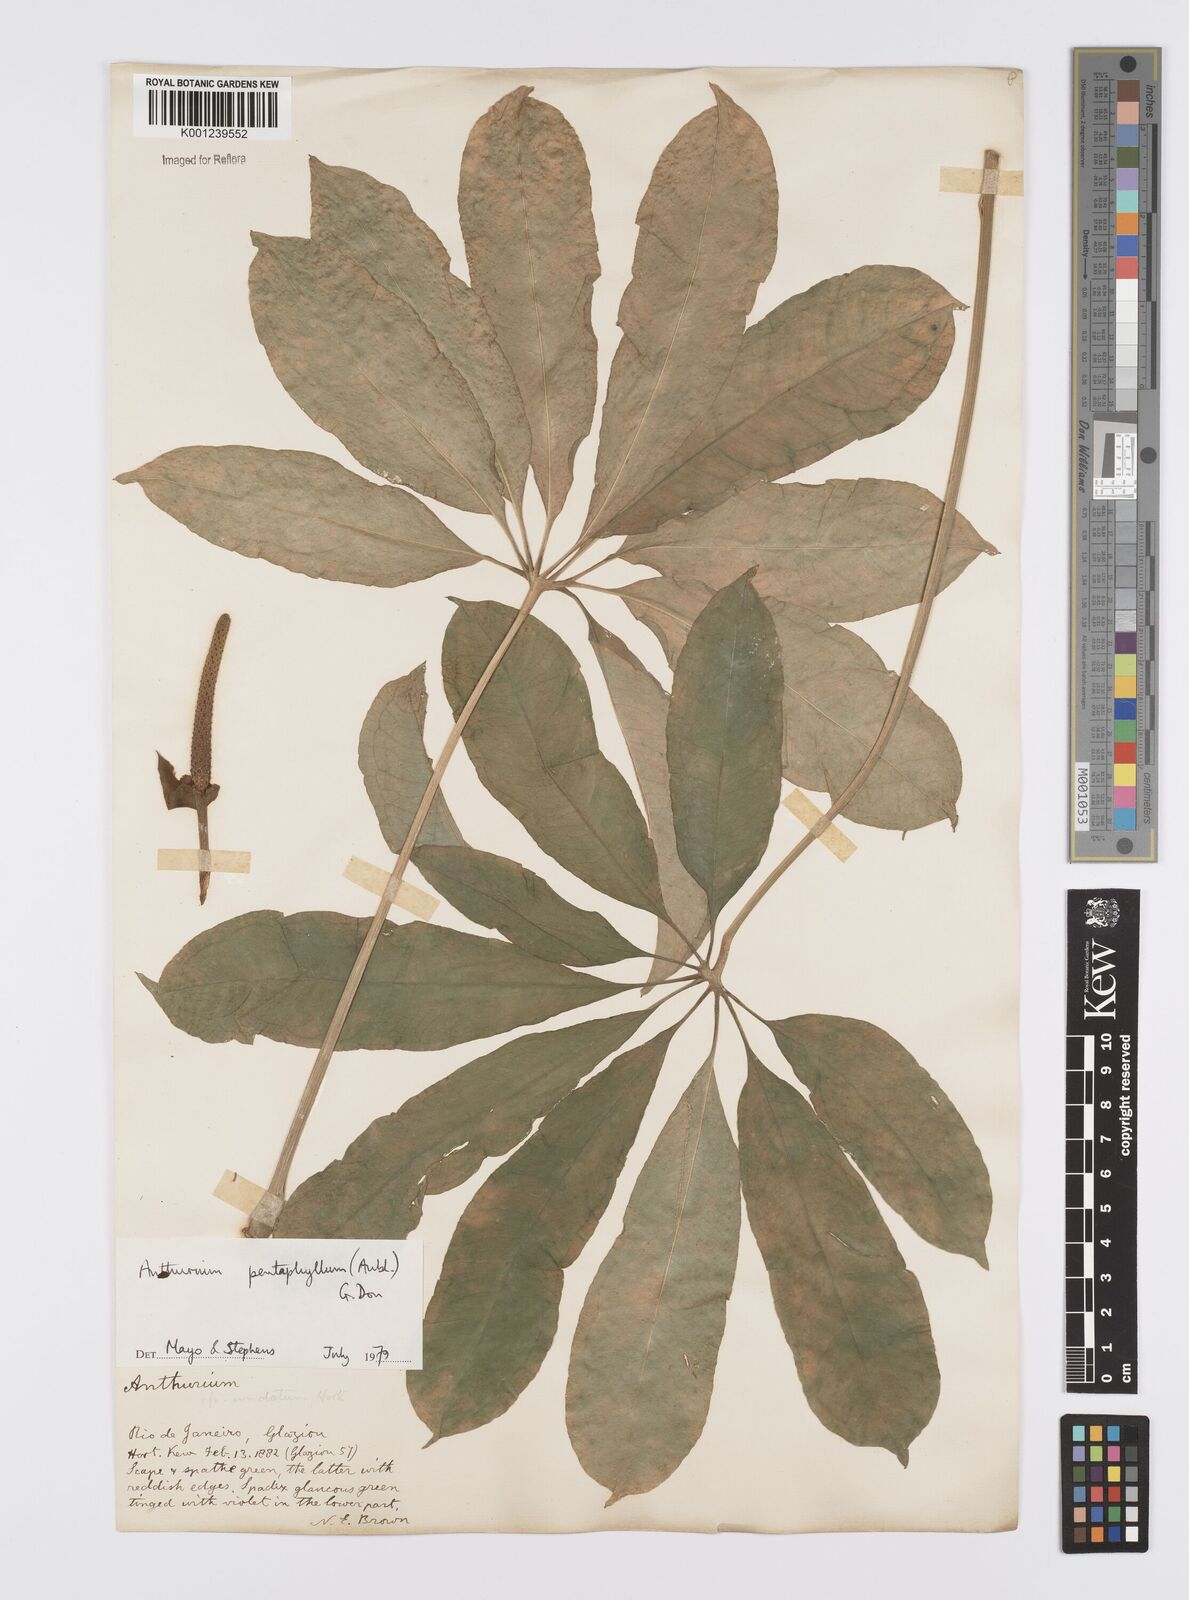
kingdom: Plantae
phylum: Tracheophyta
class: Liliopsida
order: Alismatales
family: Araceae
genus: Anthurium
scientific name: Anthurium pentaphyllum
